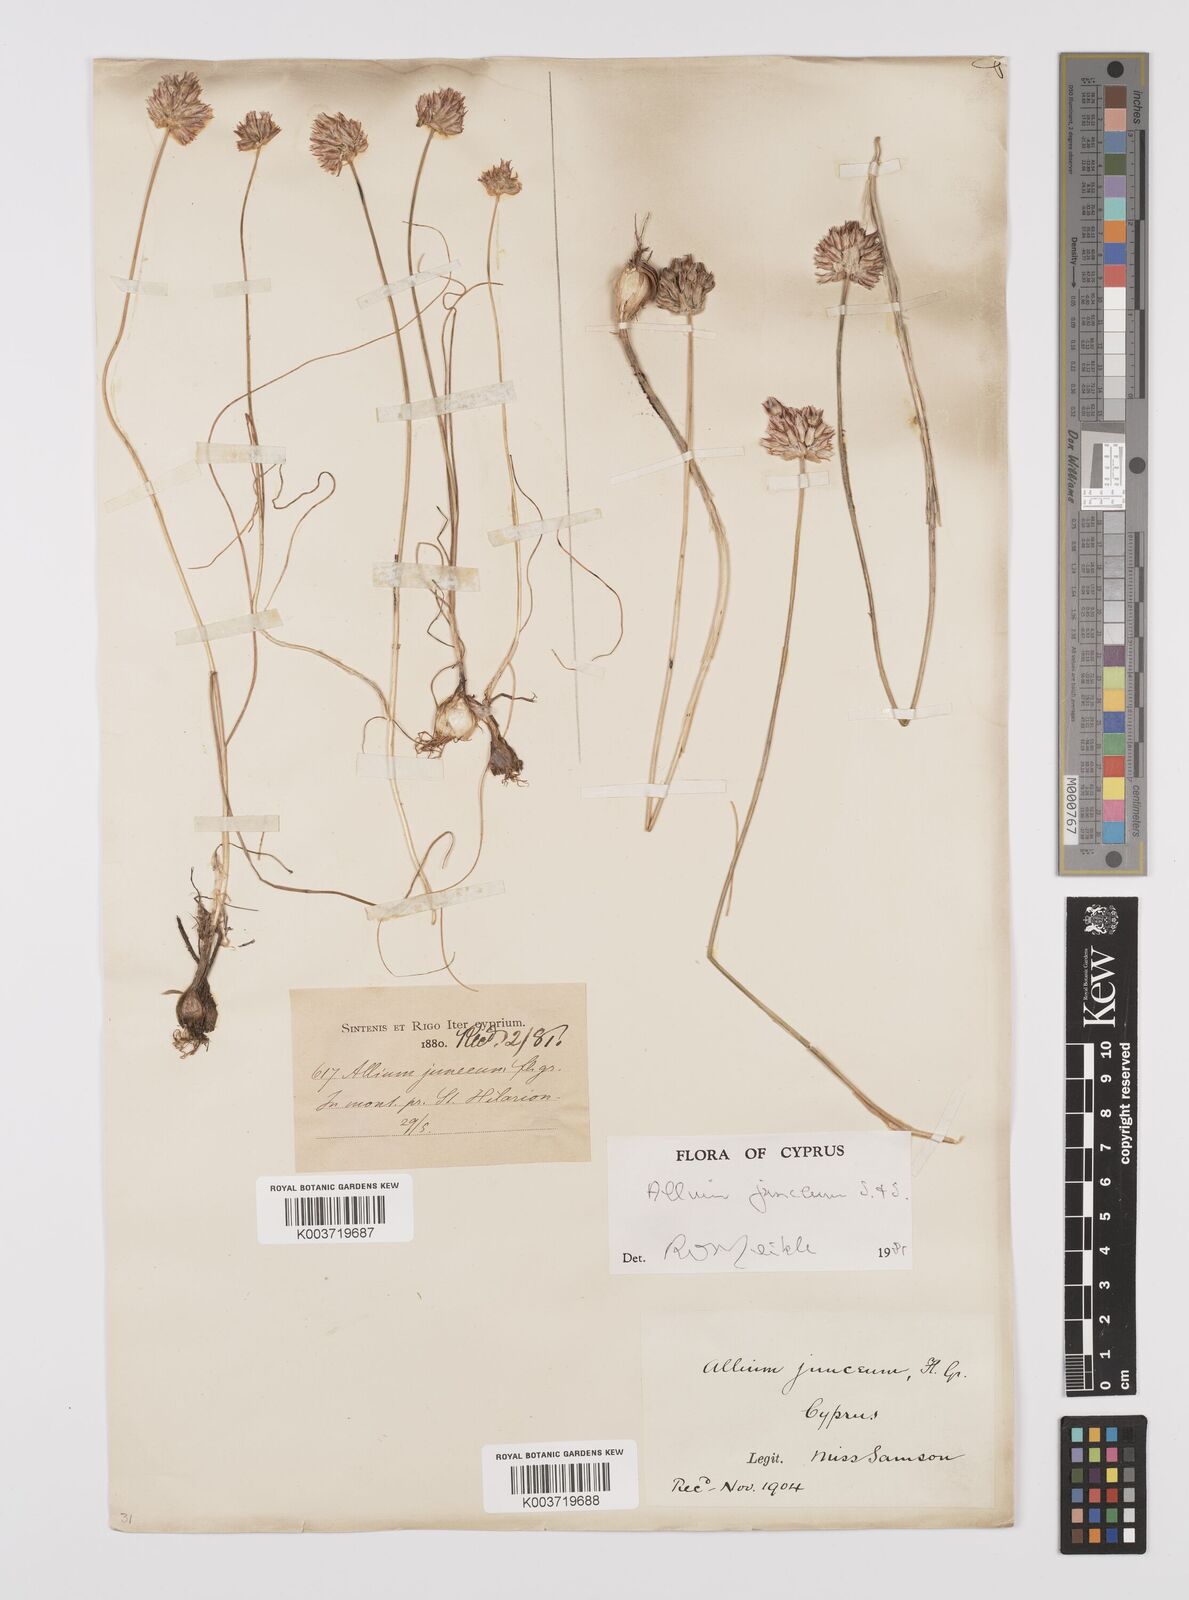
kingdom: Plantae
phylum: Tracheophyta
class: Liliopsida
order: Asparagales
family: Amaryllidaceae
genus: Allium
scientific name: Allium junceum
